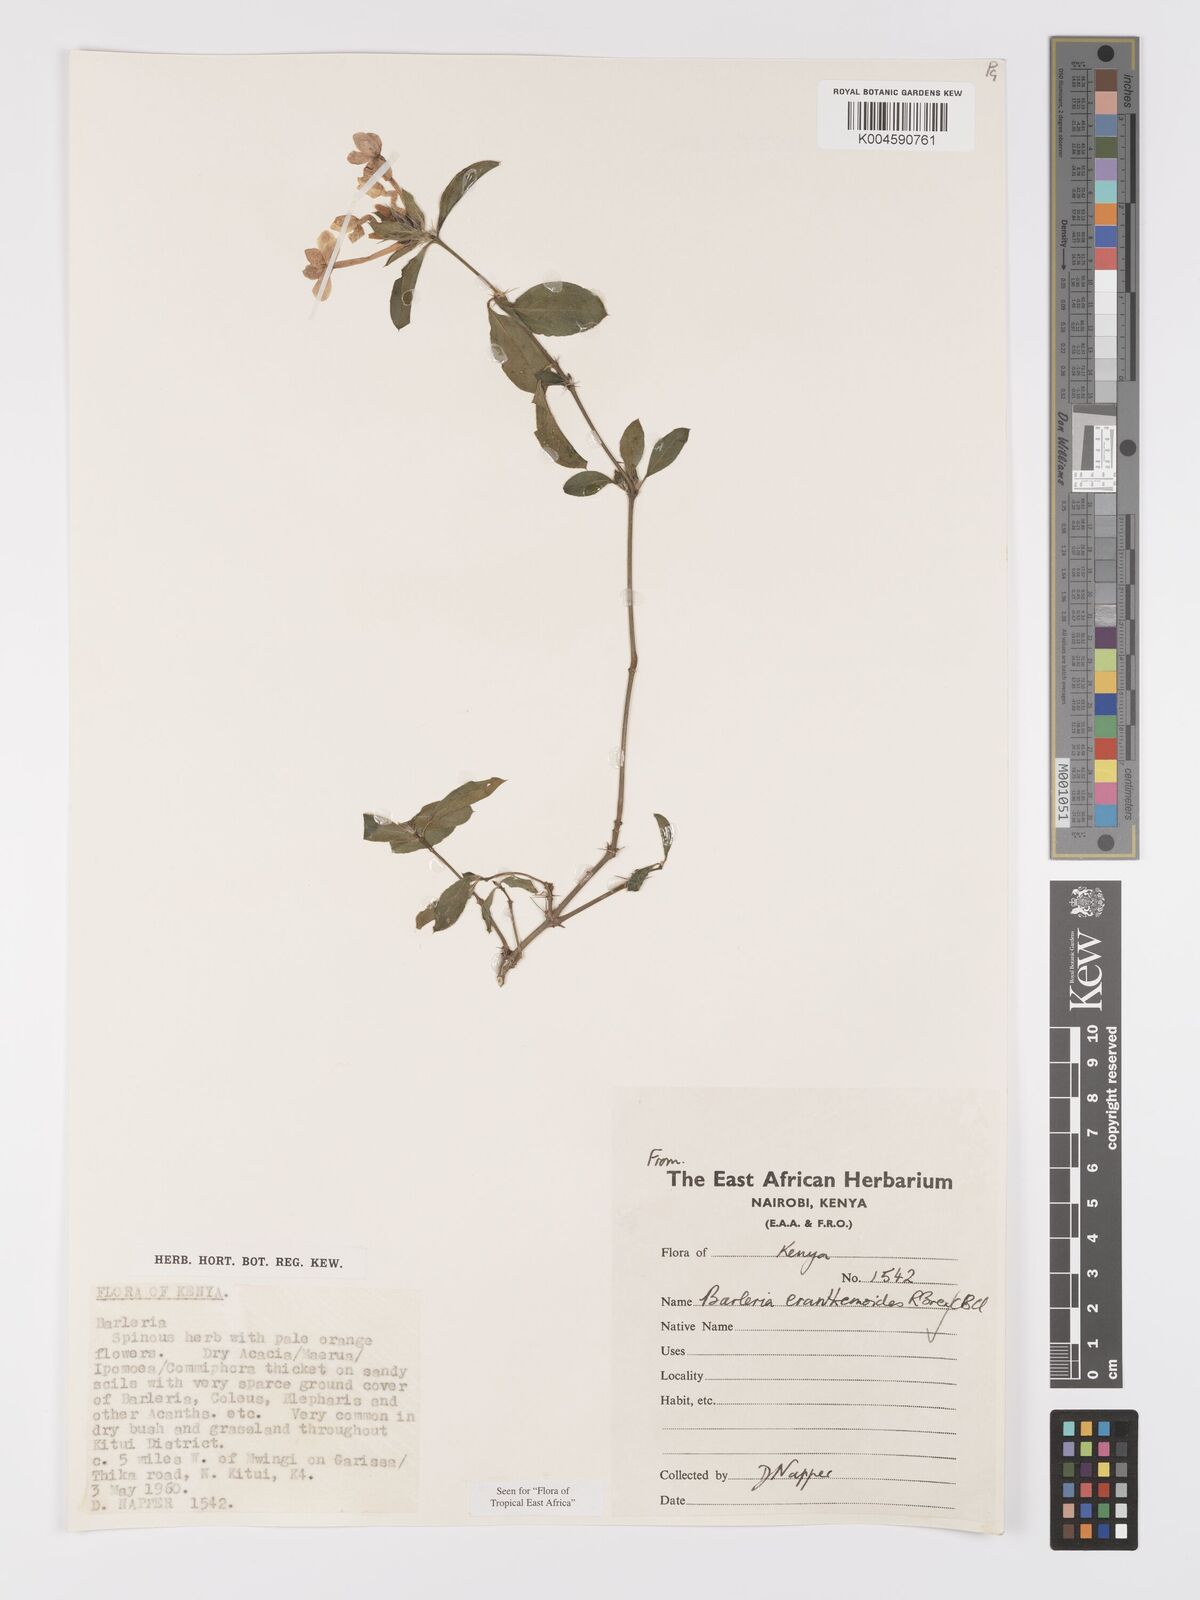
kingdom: Plantae
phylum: Tracheophyta
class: Magnoliopsida
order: Lamiales
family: Acanthaceae
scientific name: Acanthaceae
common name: Acanthaceae
